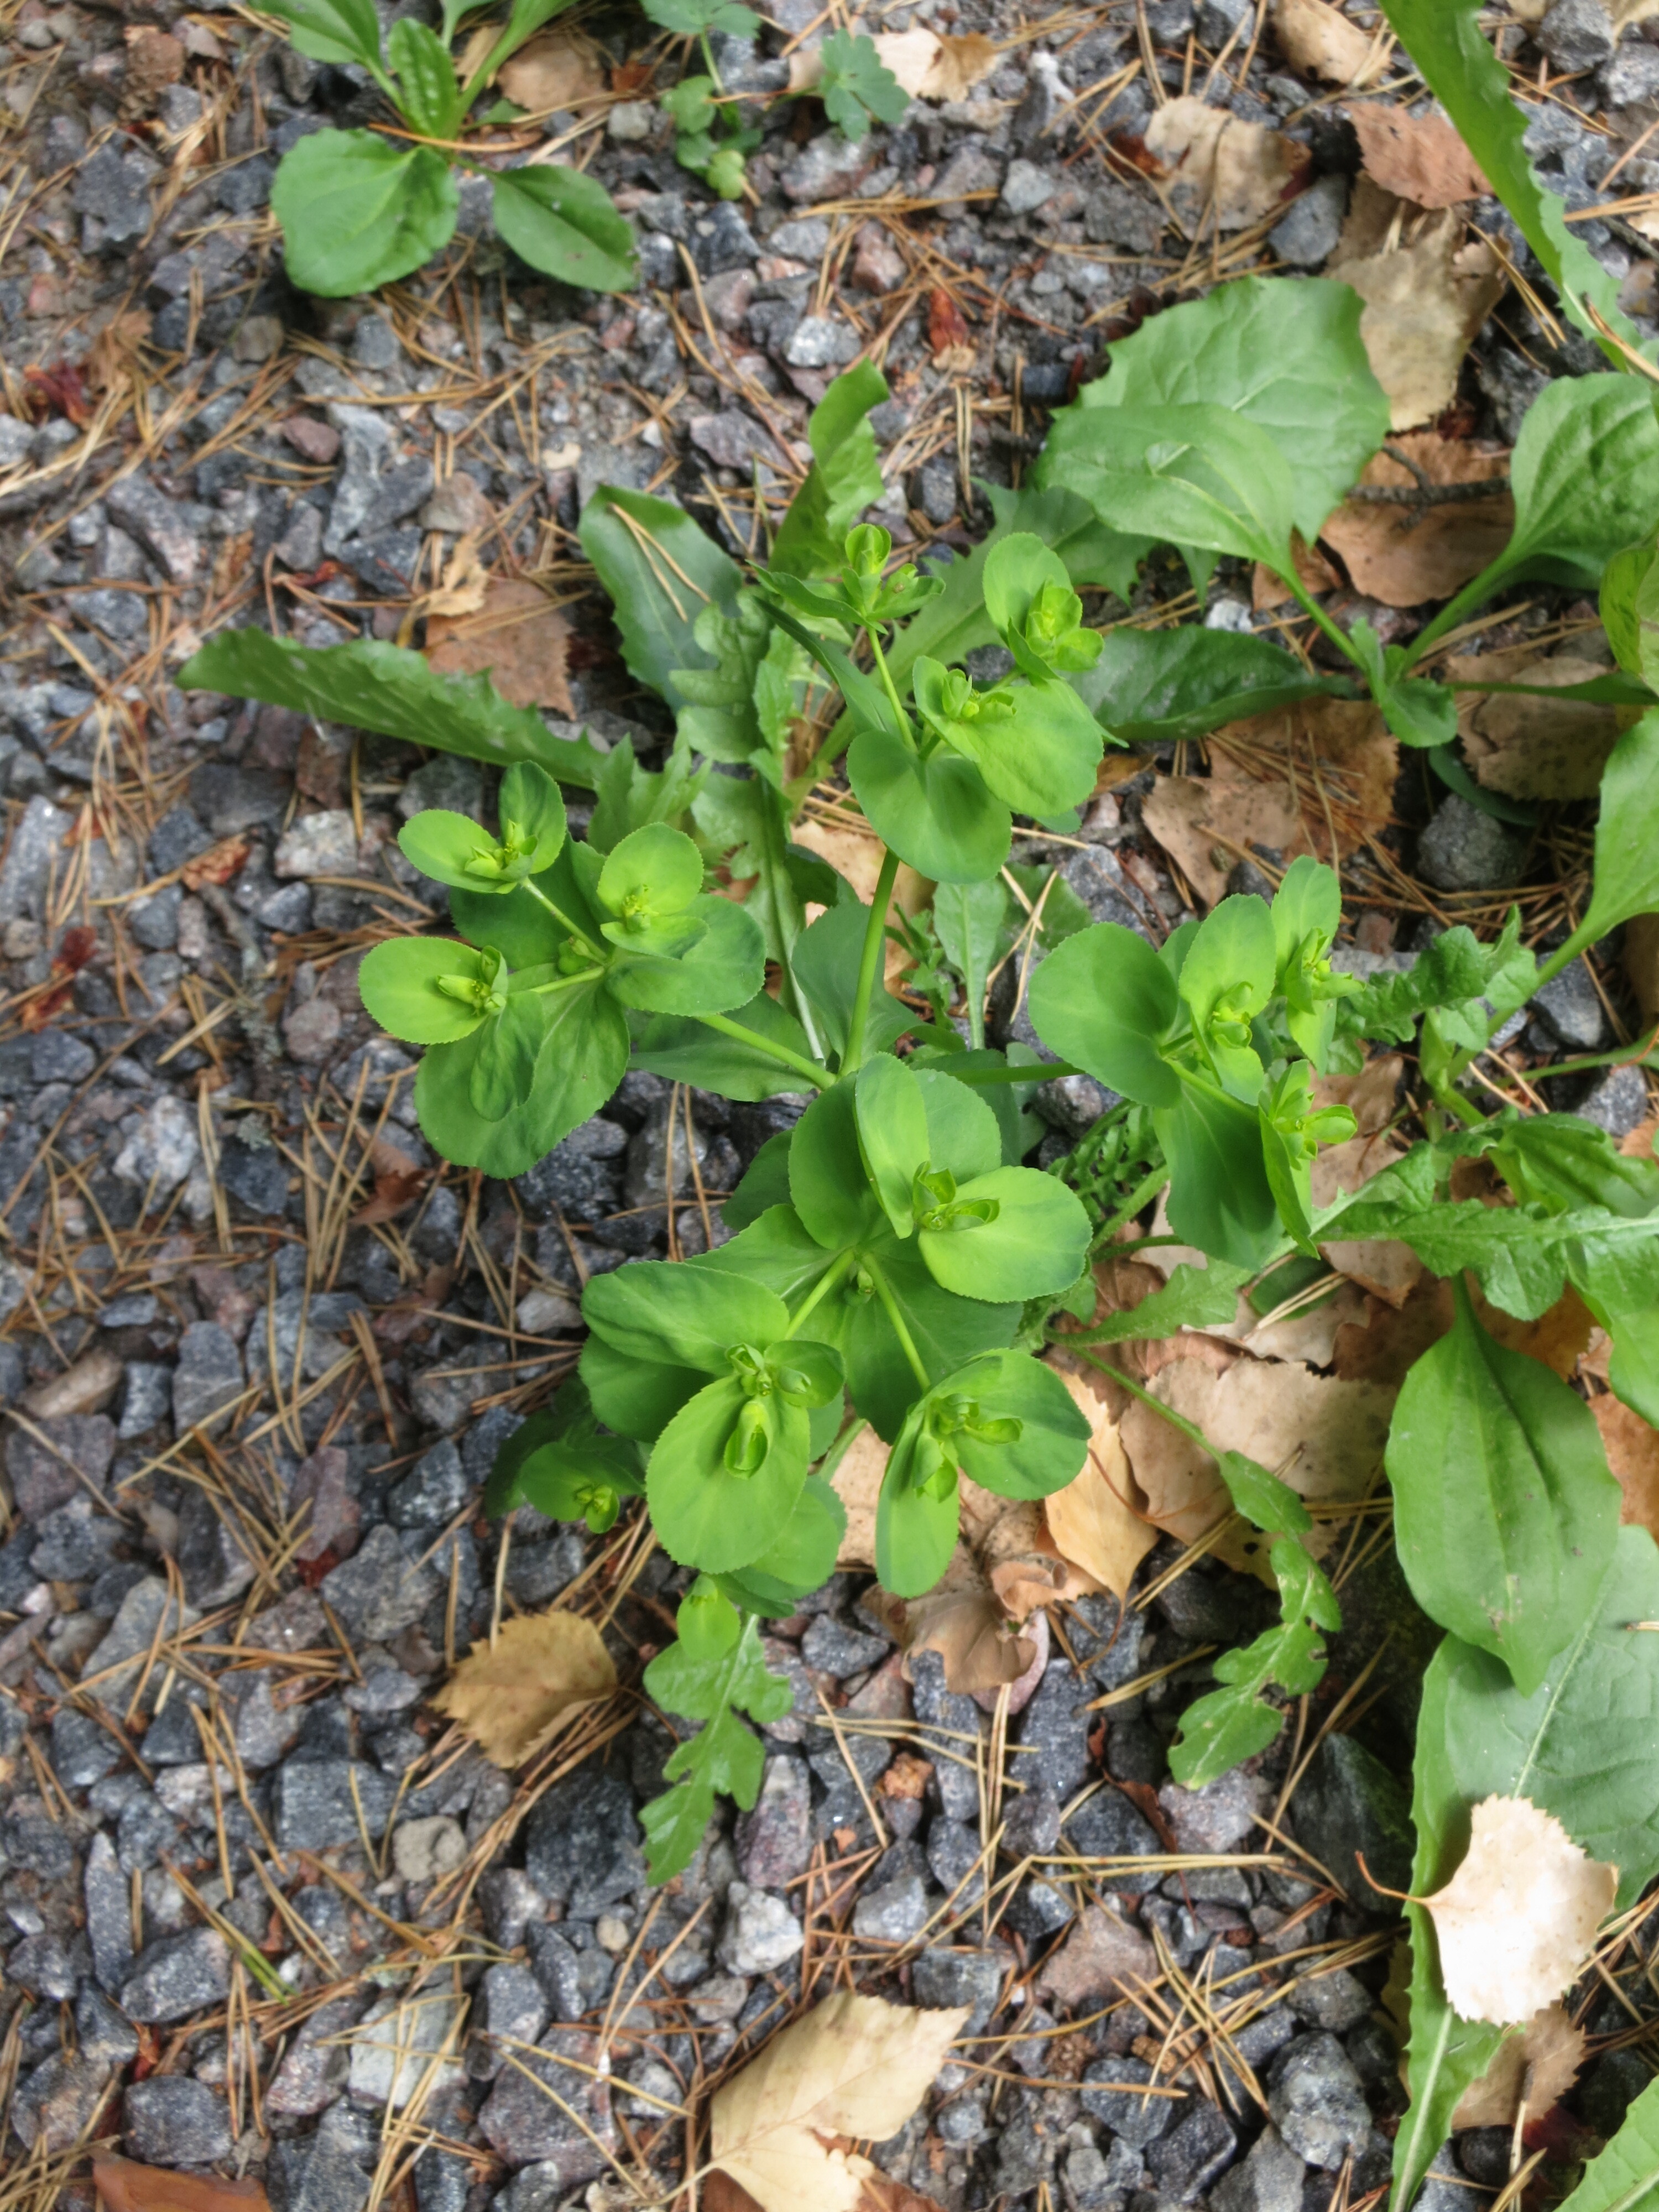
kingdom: Plantae
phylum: Tracheophyta
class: Magnoliopsida
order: Malpighiales
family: Euphorbiaceae
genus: Euphorbia
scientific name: Euphorbia helioscopia
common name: Sun spurge
